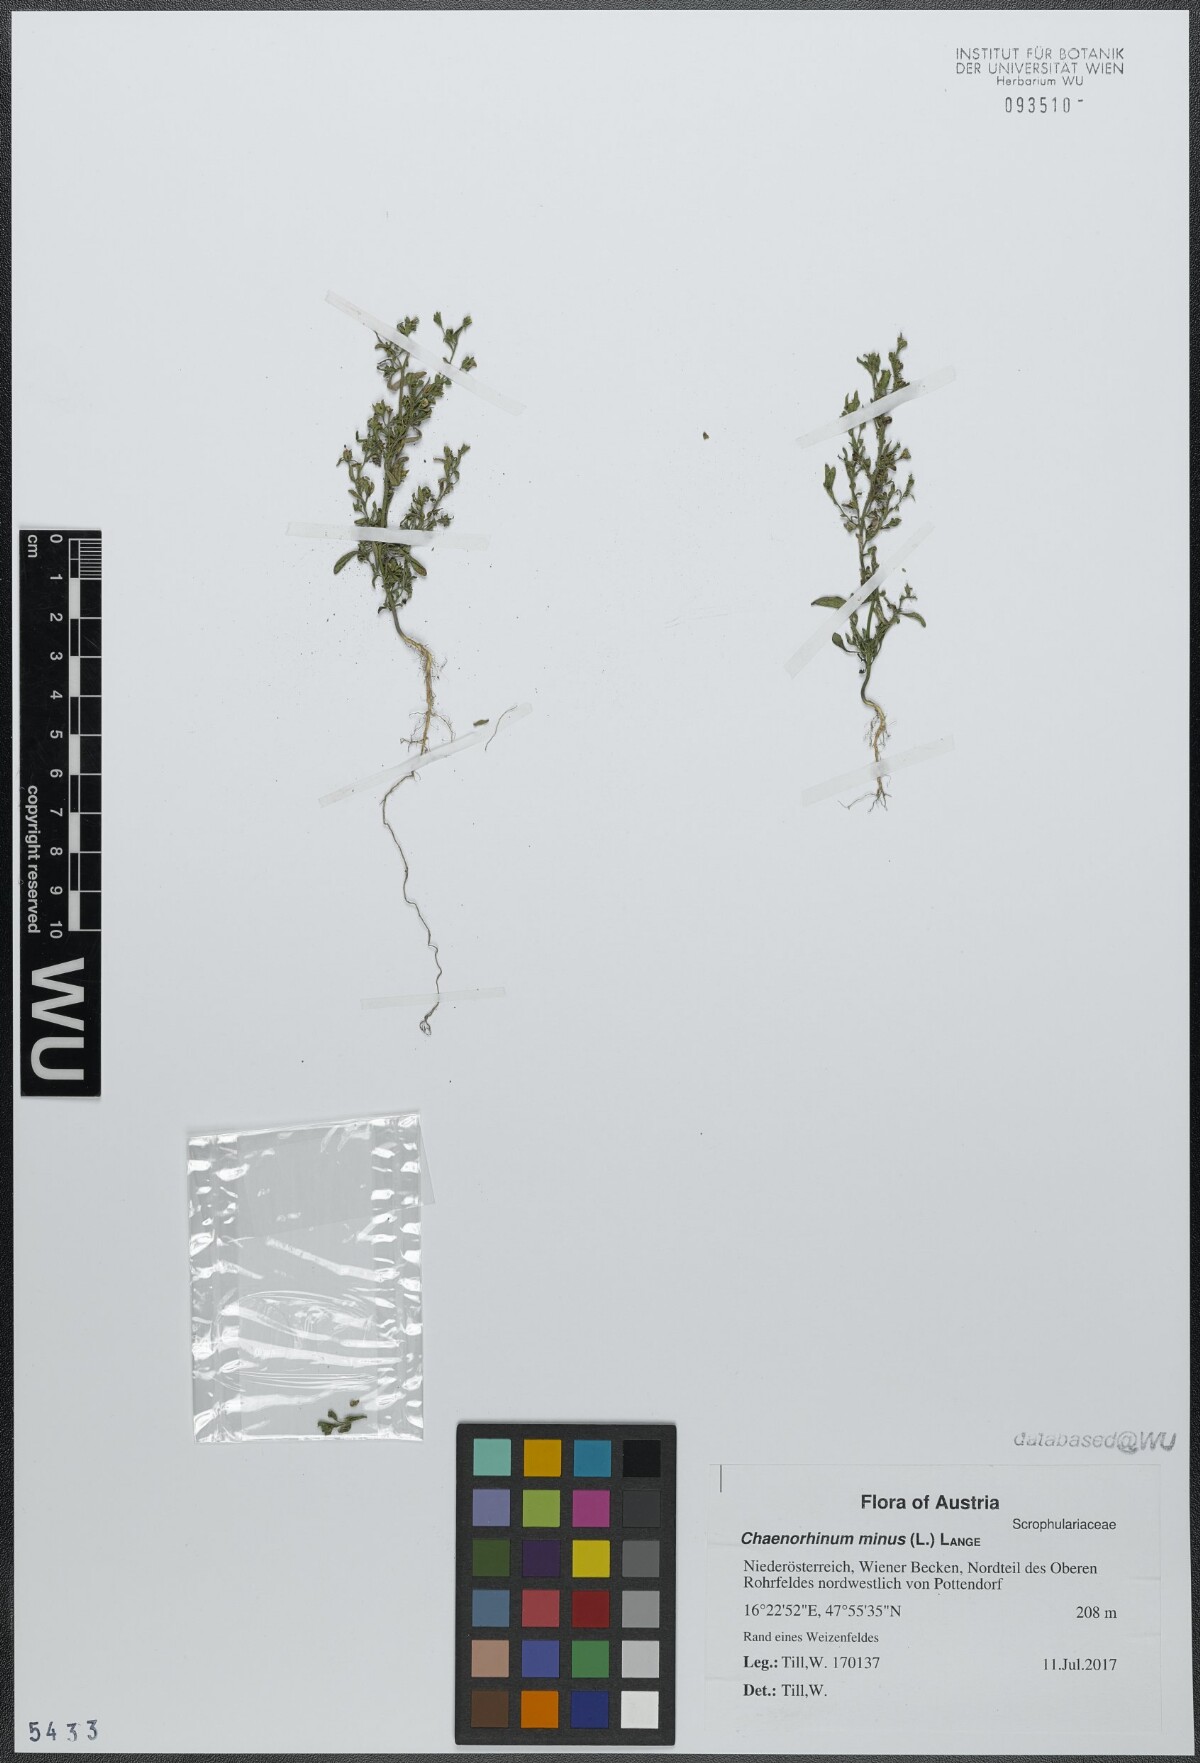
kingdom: Plantae
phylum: Tracheophyta
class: Magnoliopsida
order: Lamiales
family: Plantaginaceae
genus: Chaenorhinum
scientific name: Chaenorhinum minus
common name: Dwarf snapdragon
